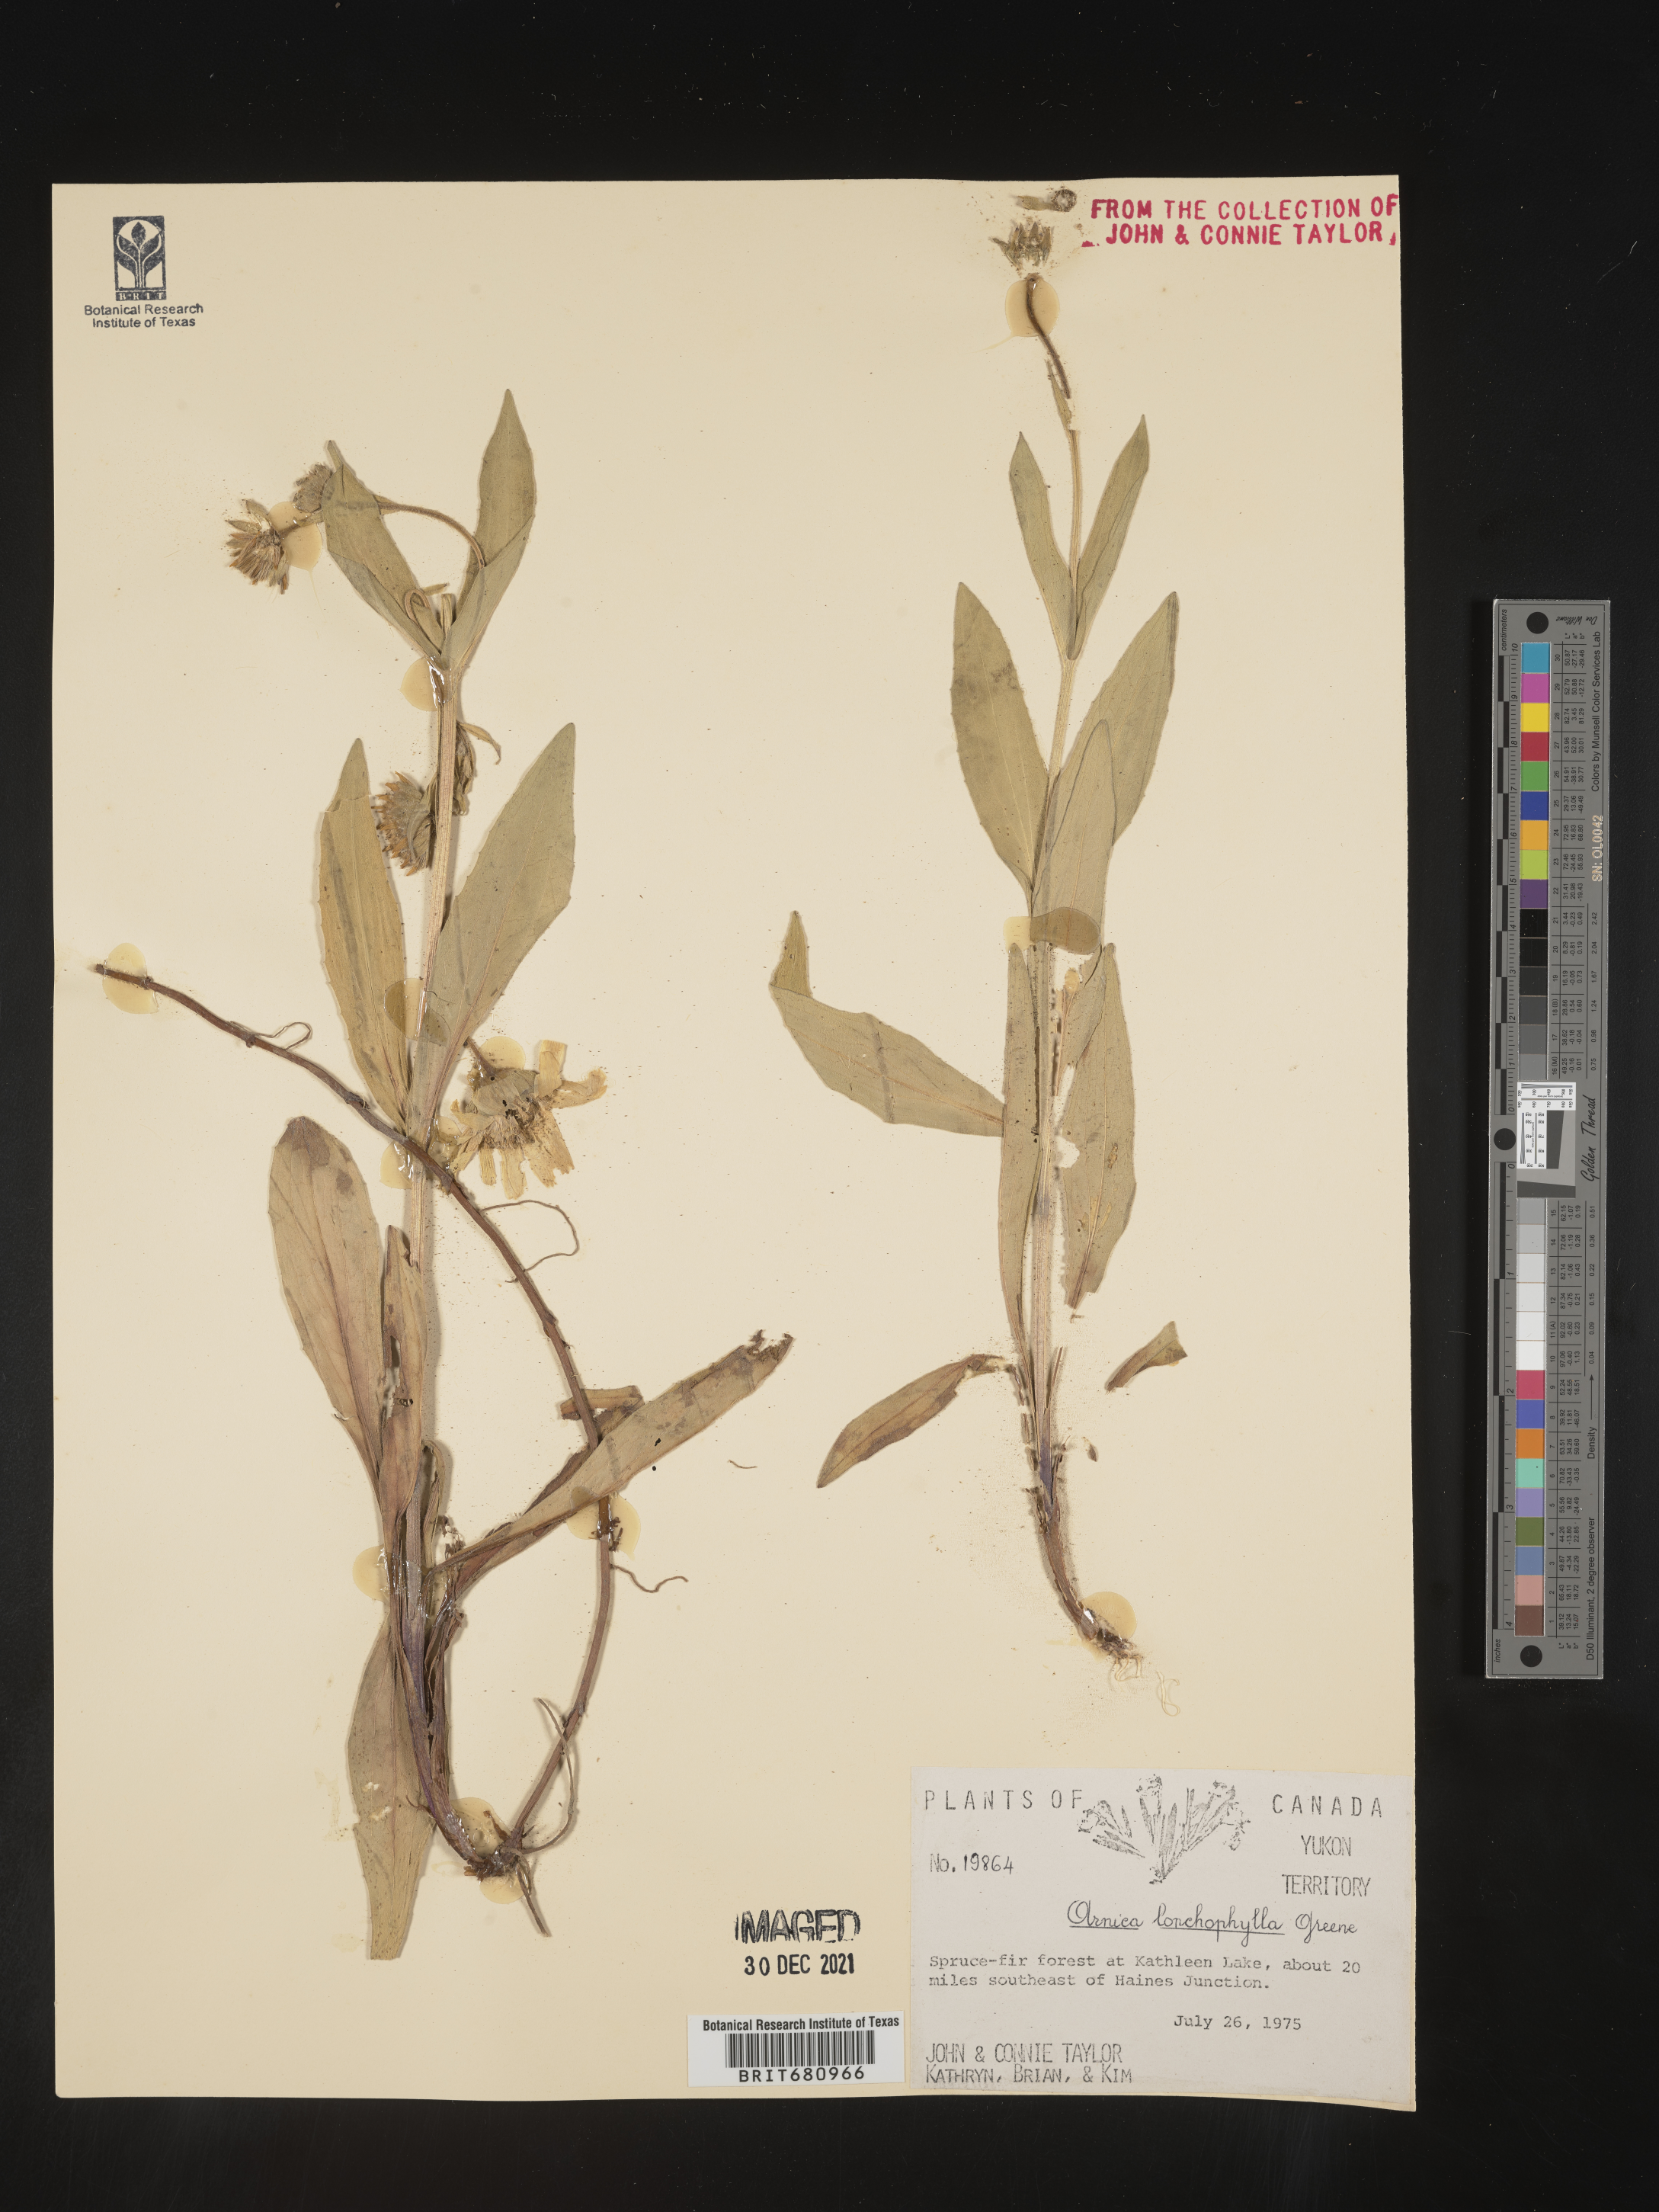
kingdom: Plantae
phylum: Tracheophyta
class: Magnoliopsida
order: Asterales
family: Asteraceae
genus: Arnica
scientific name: Arnica lonchophylla
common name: Northern arnica
